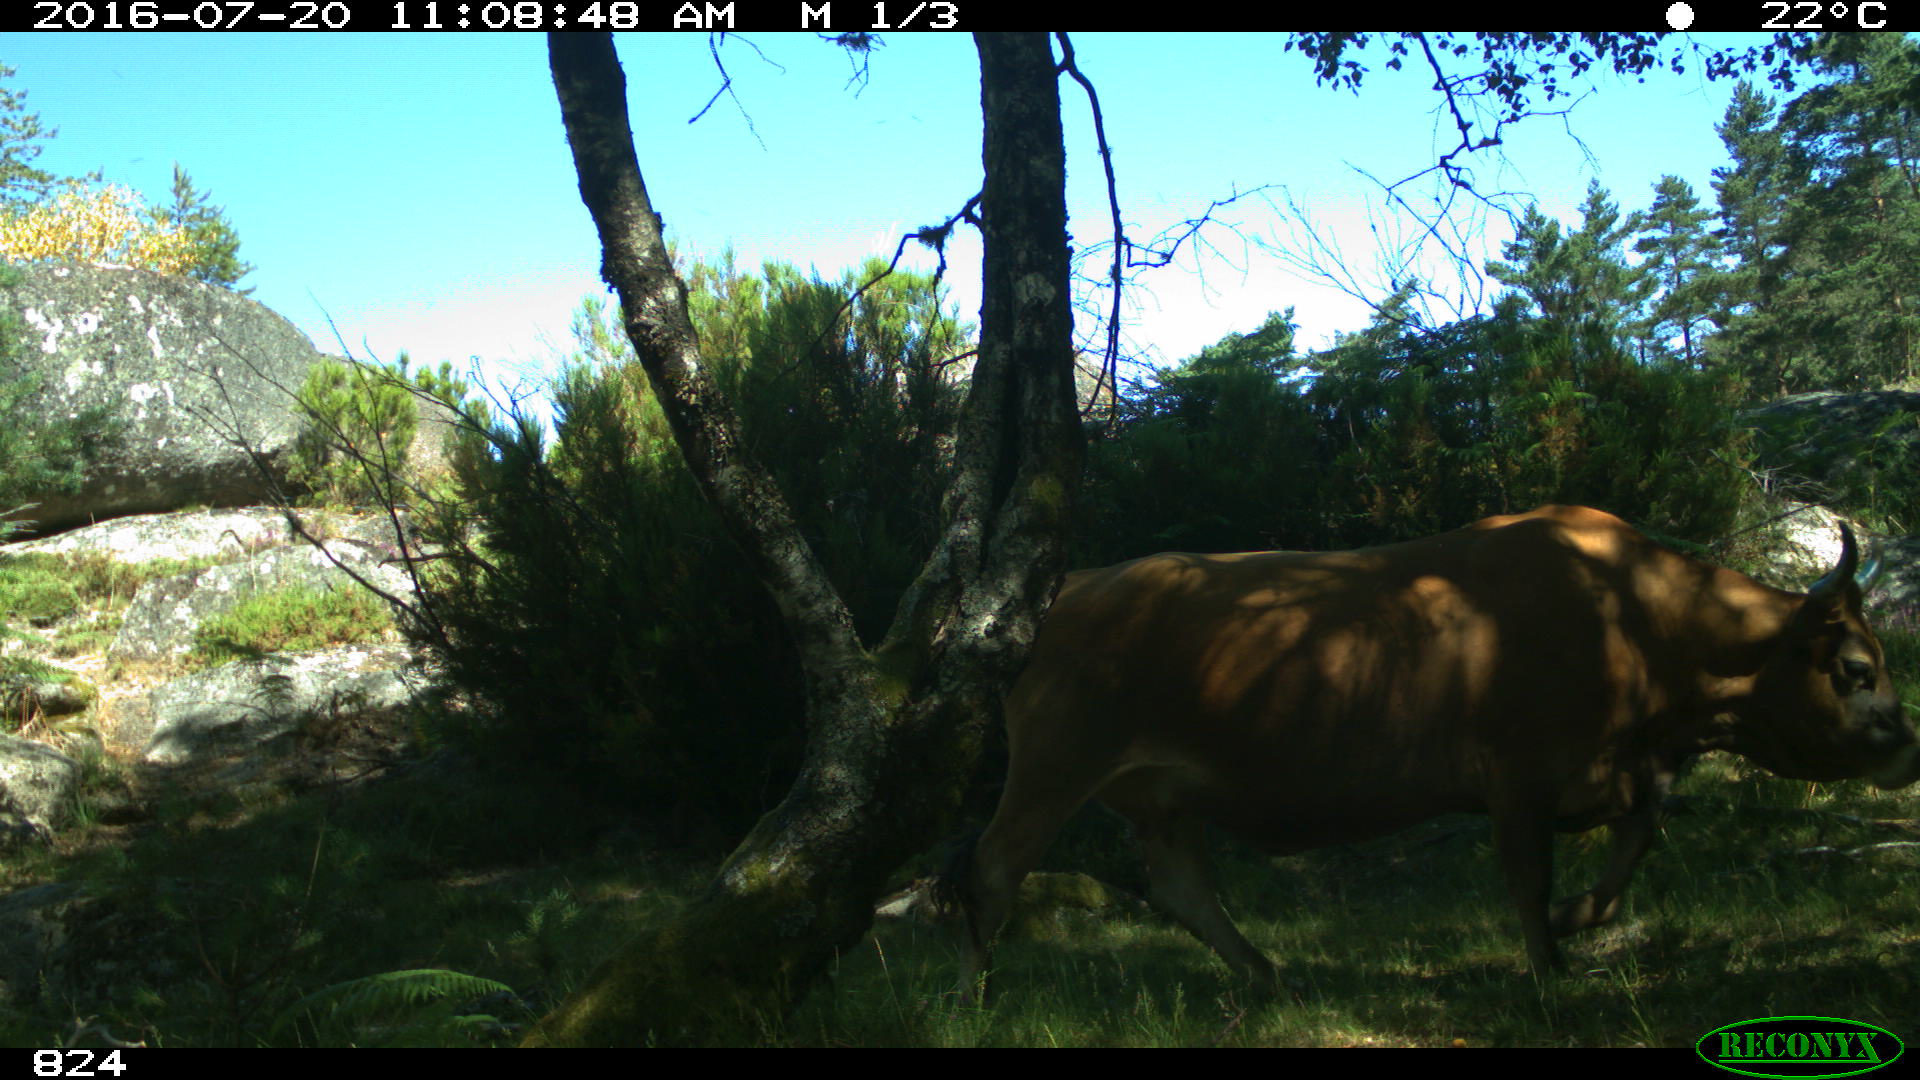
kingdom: Animalia
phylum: Chordata
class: Mammalia
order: Artiodactyla
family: Bovidae
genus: Bos
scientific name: Bos taurus
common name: Domesticated cattle
